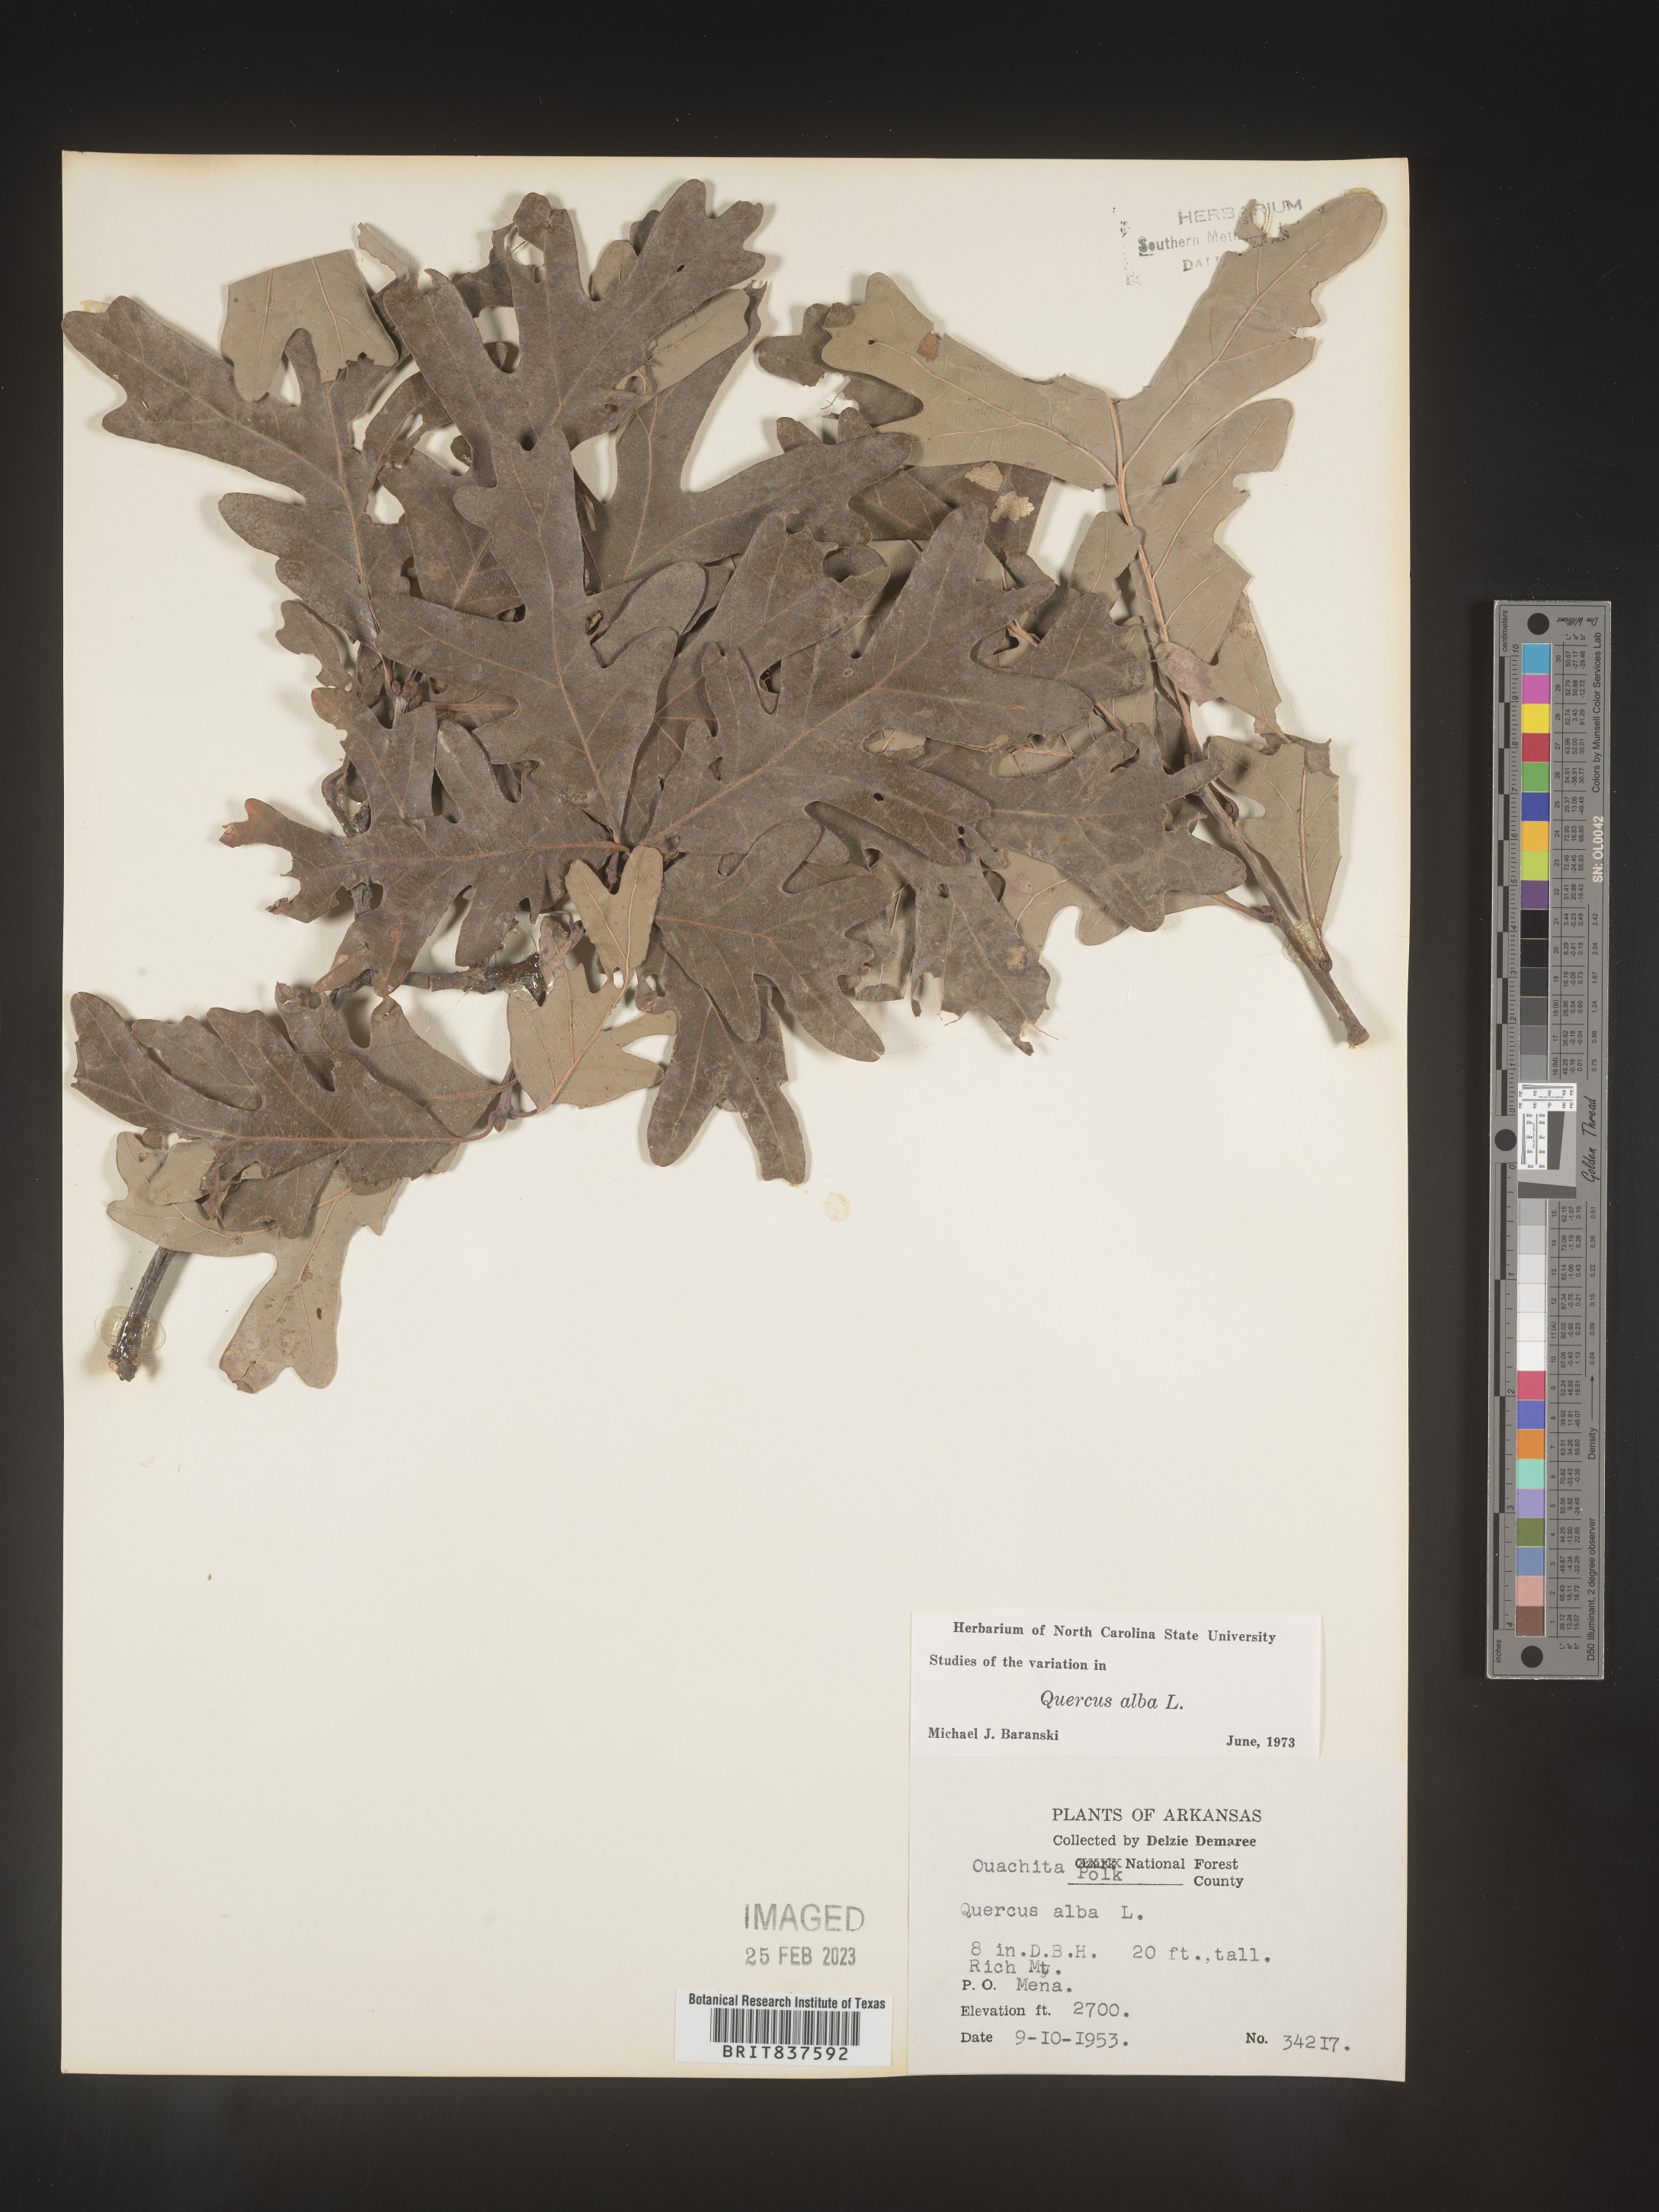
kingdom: Plantae
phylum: Tracheophyta
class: Magnoliopsida
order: Fagales
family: Fagaceae
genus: Quercus
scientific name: Quercus alba
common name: White oak
